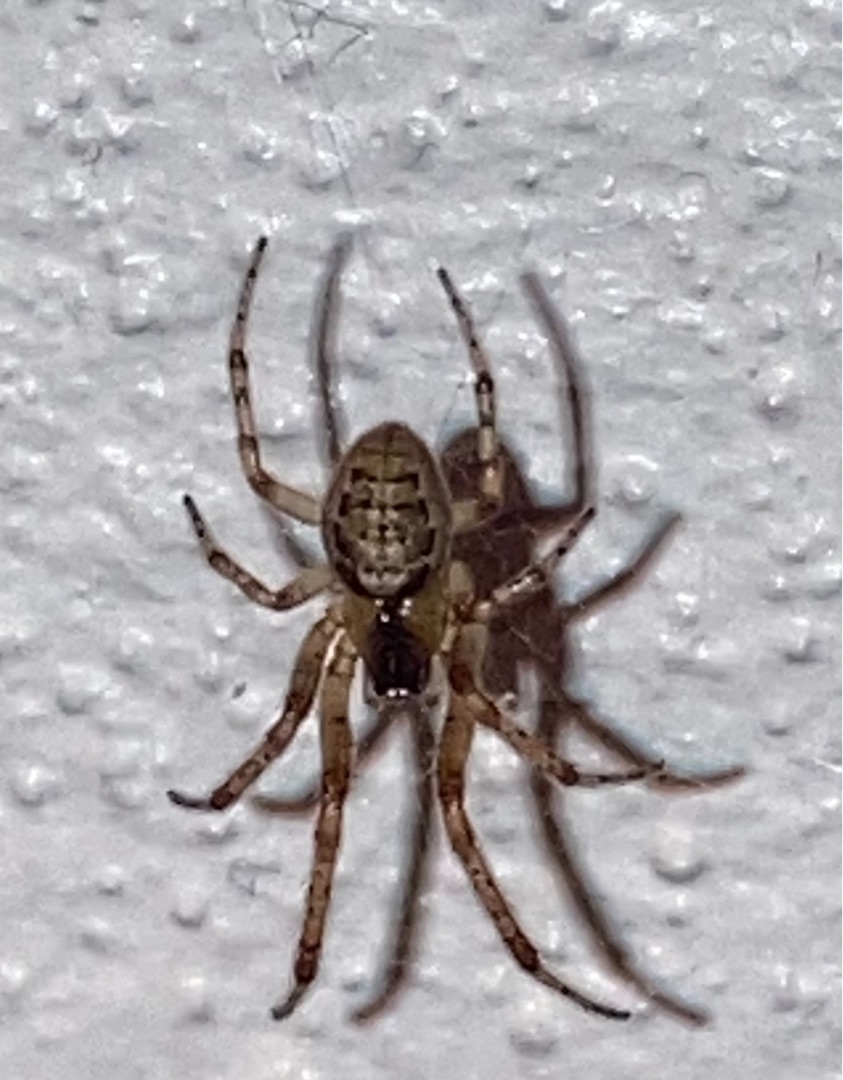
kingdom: Animalia
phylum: Arthropoda
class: Arachnida
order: Araneae
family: Araneidae
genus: Zygiella
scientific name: Zygiella x-notata
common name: Grå sektoredderkop
